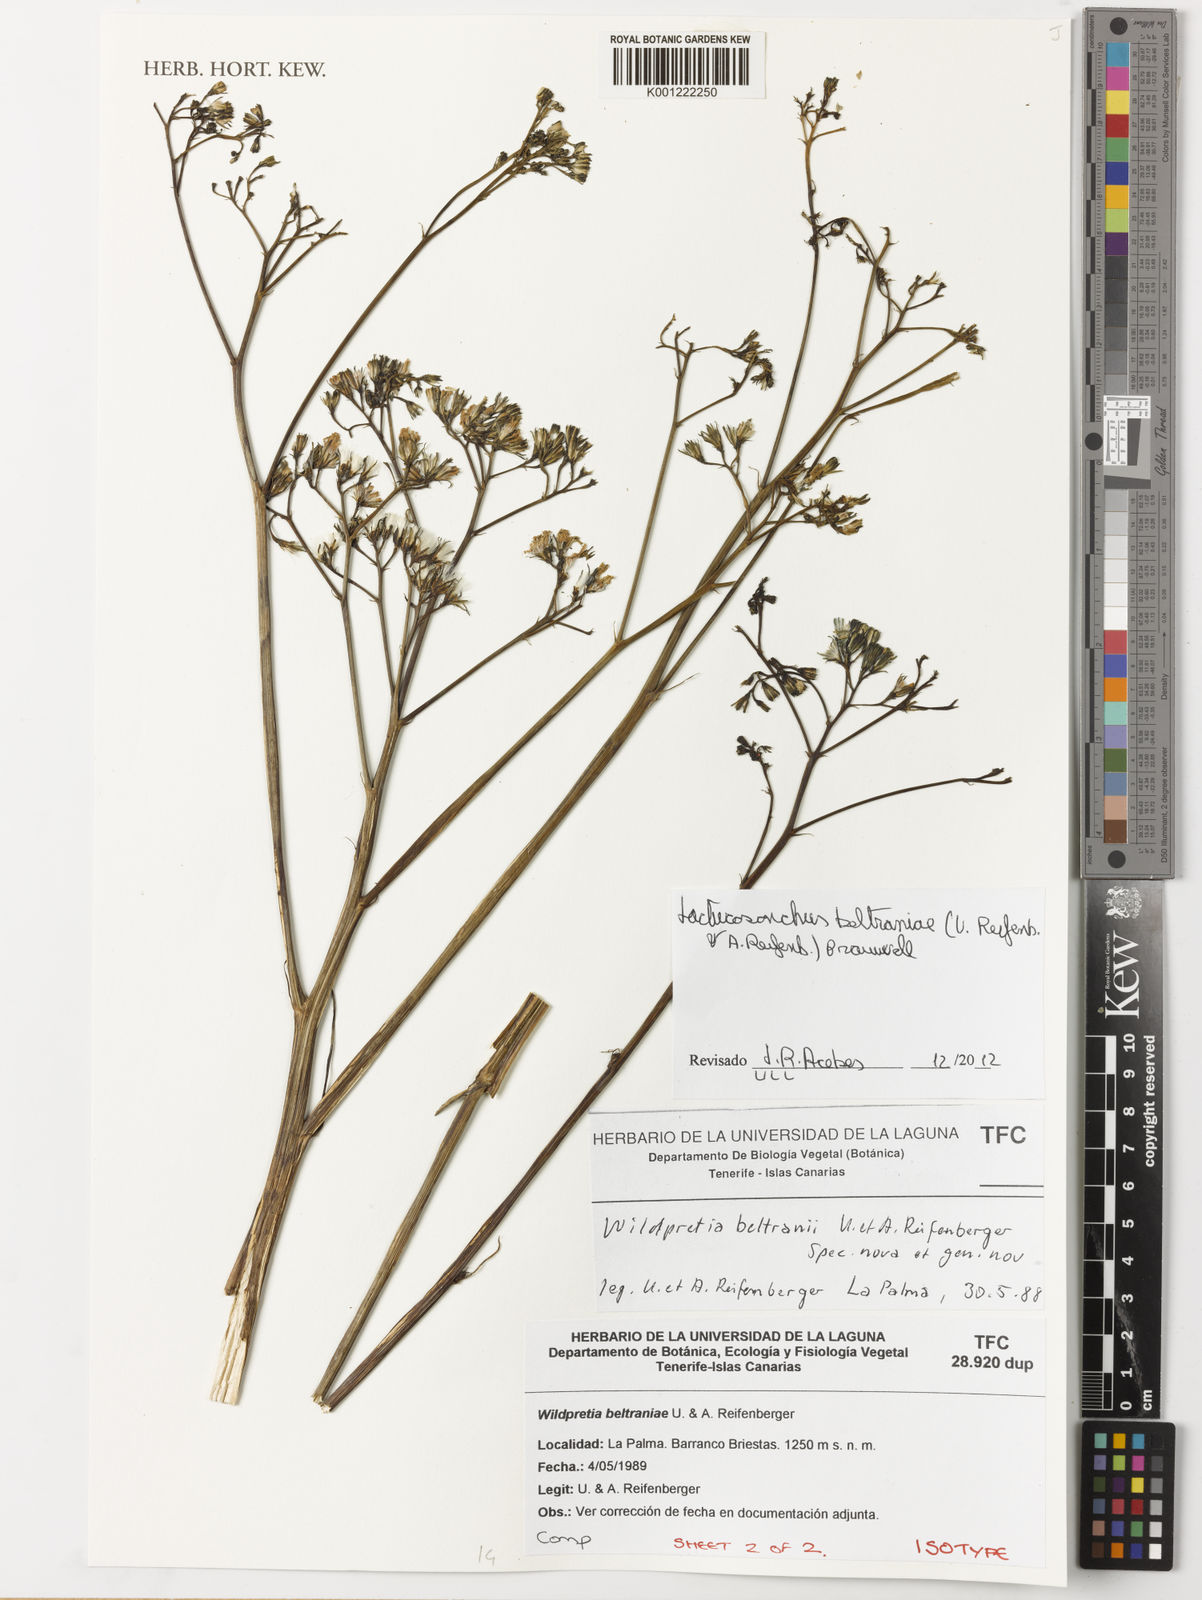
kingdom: Plantae
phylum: Tracheophyta
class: Magnoliopsida
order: Asterales
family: Asteraceae
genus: Sonchus
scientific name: Sonchus esperanzae
